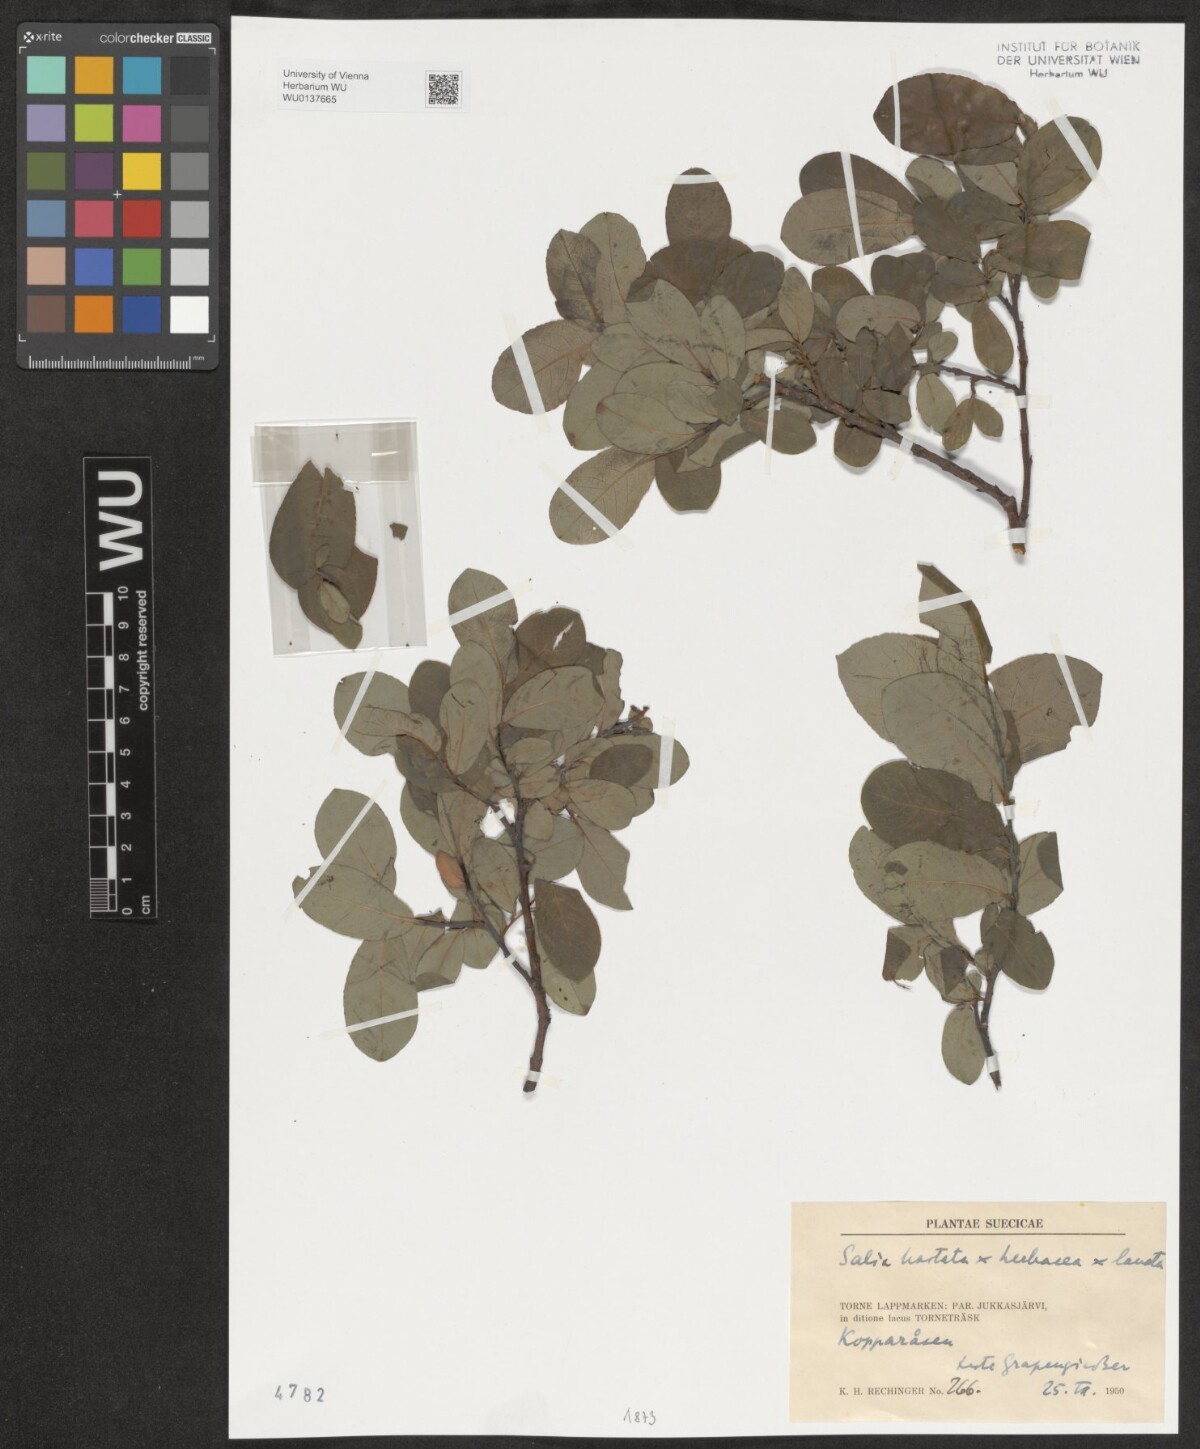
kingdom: Plantae
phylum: Tracheophyta
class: Magnoliopsida
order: Malpighiales
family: Salicaceae
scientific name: Salicaceae
